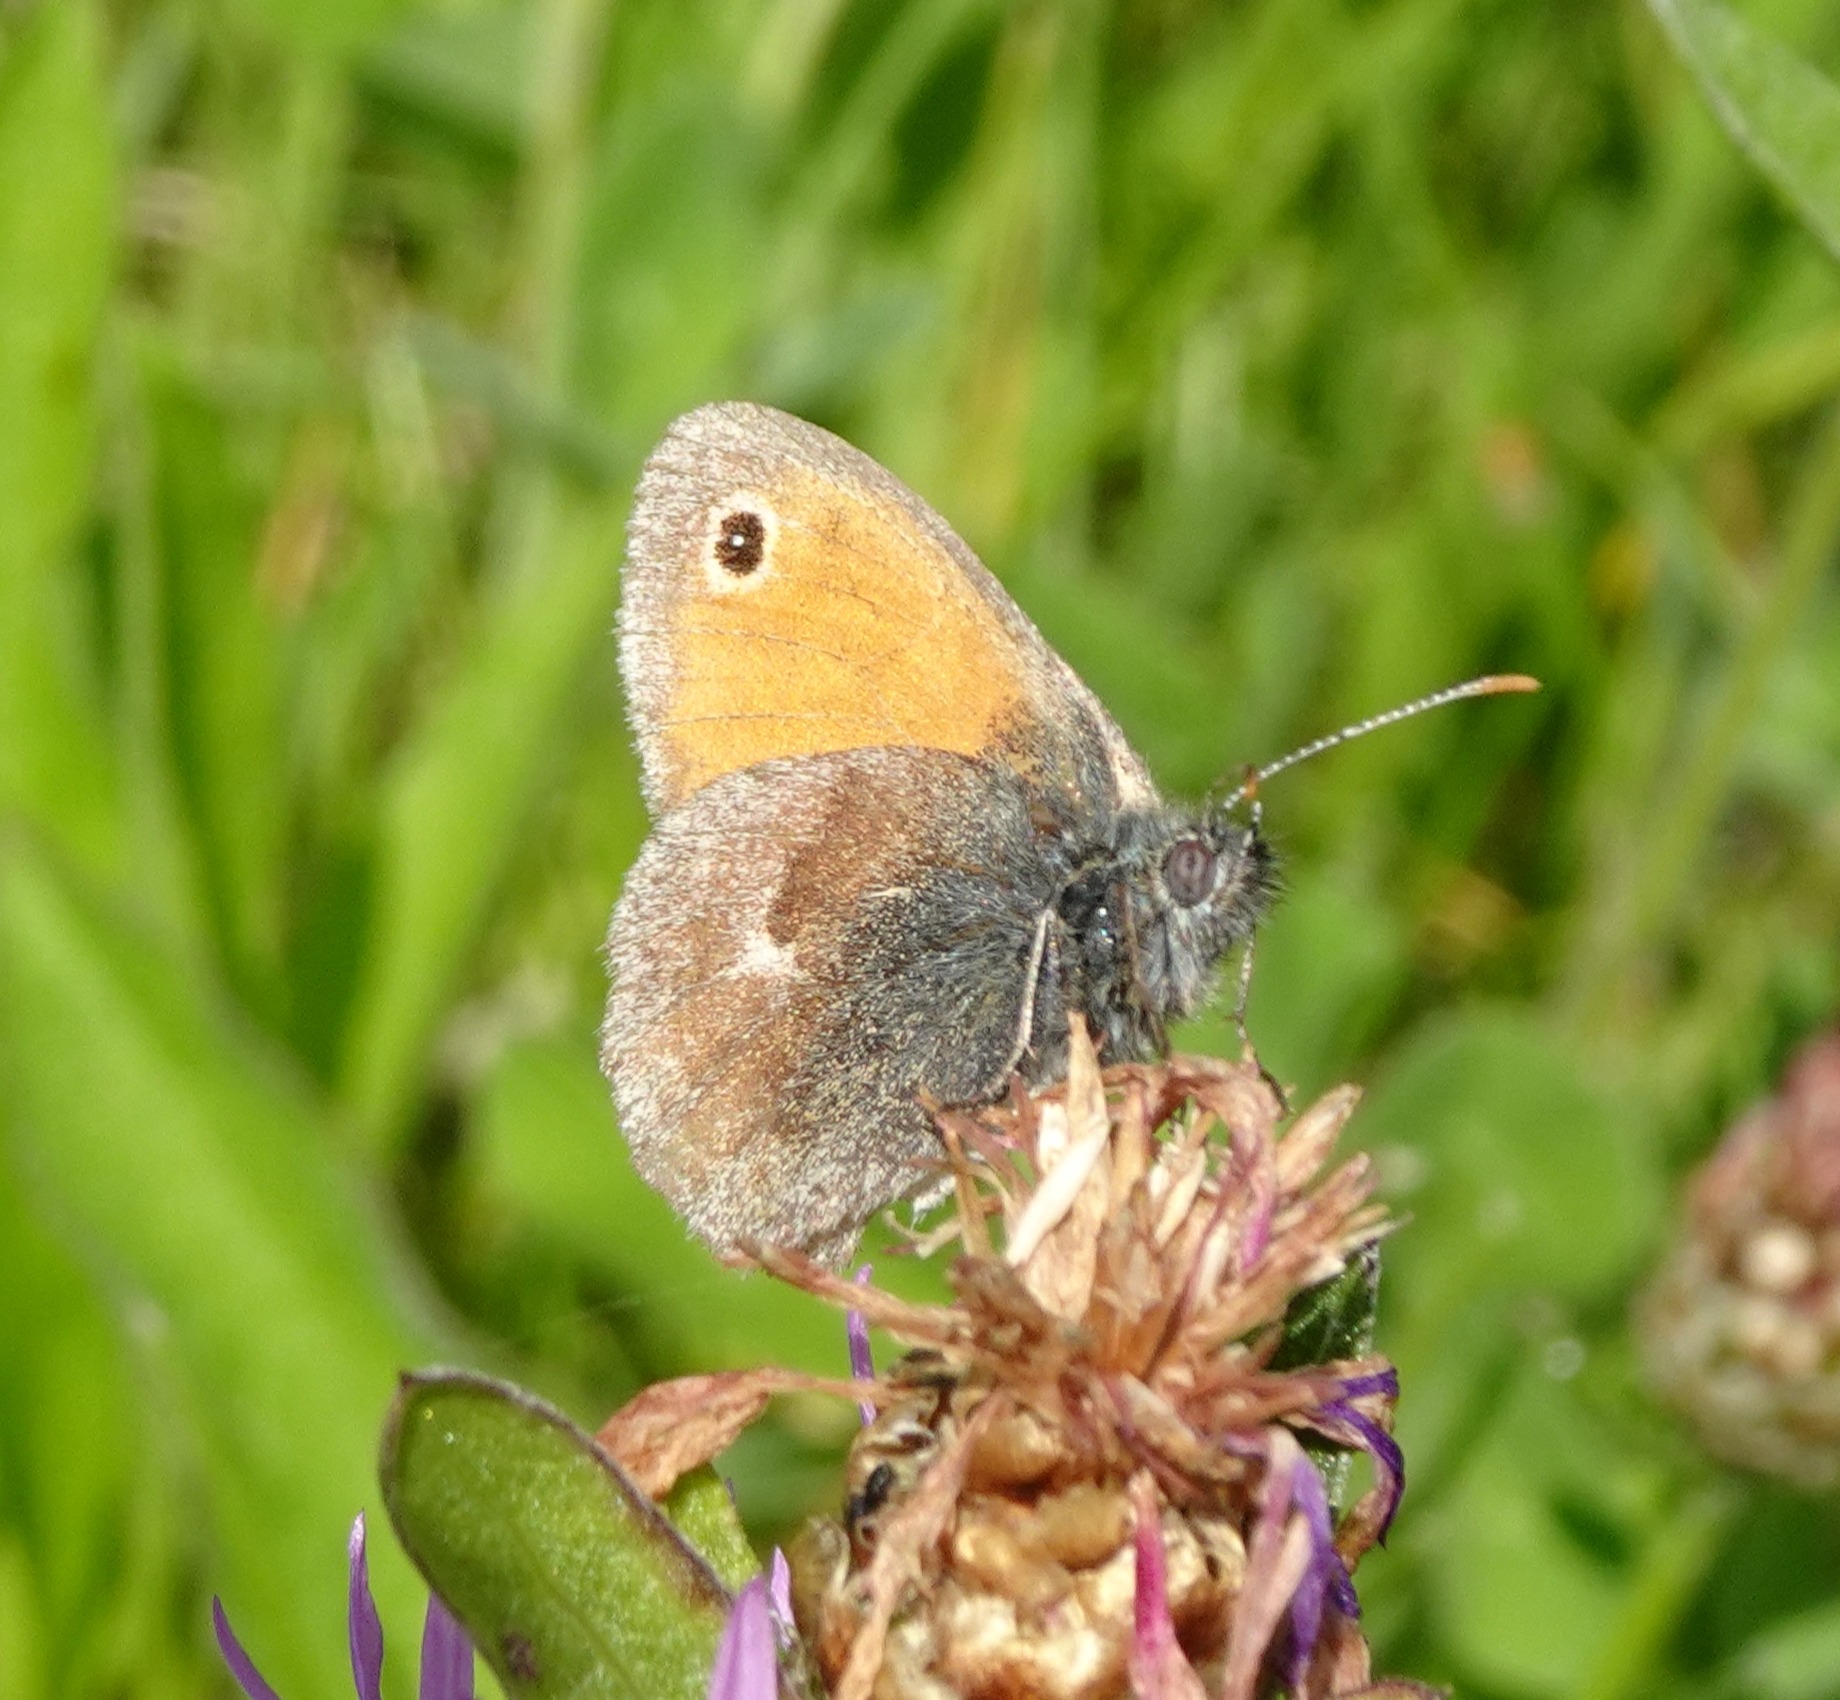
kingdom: Animalia
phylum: Arthropoda
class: Insecta
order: Lepidoptera
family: Nymphalidae
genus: Coenonympha
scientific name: Coenonympha pamphilus
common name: Okkergul randøje
